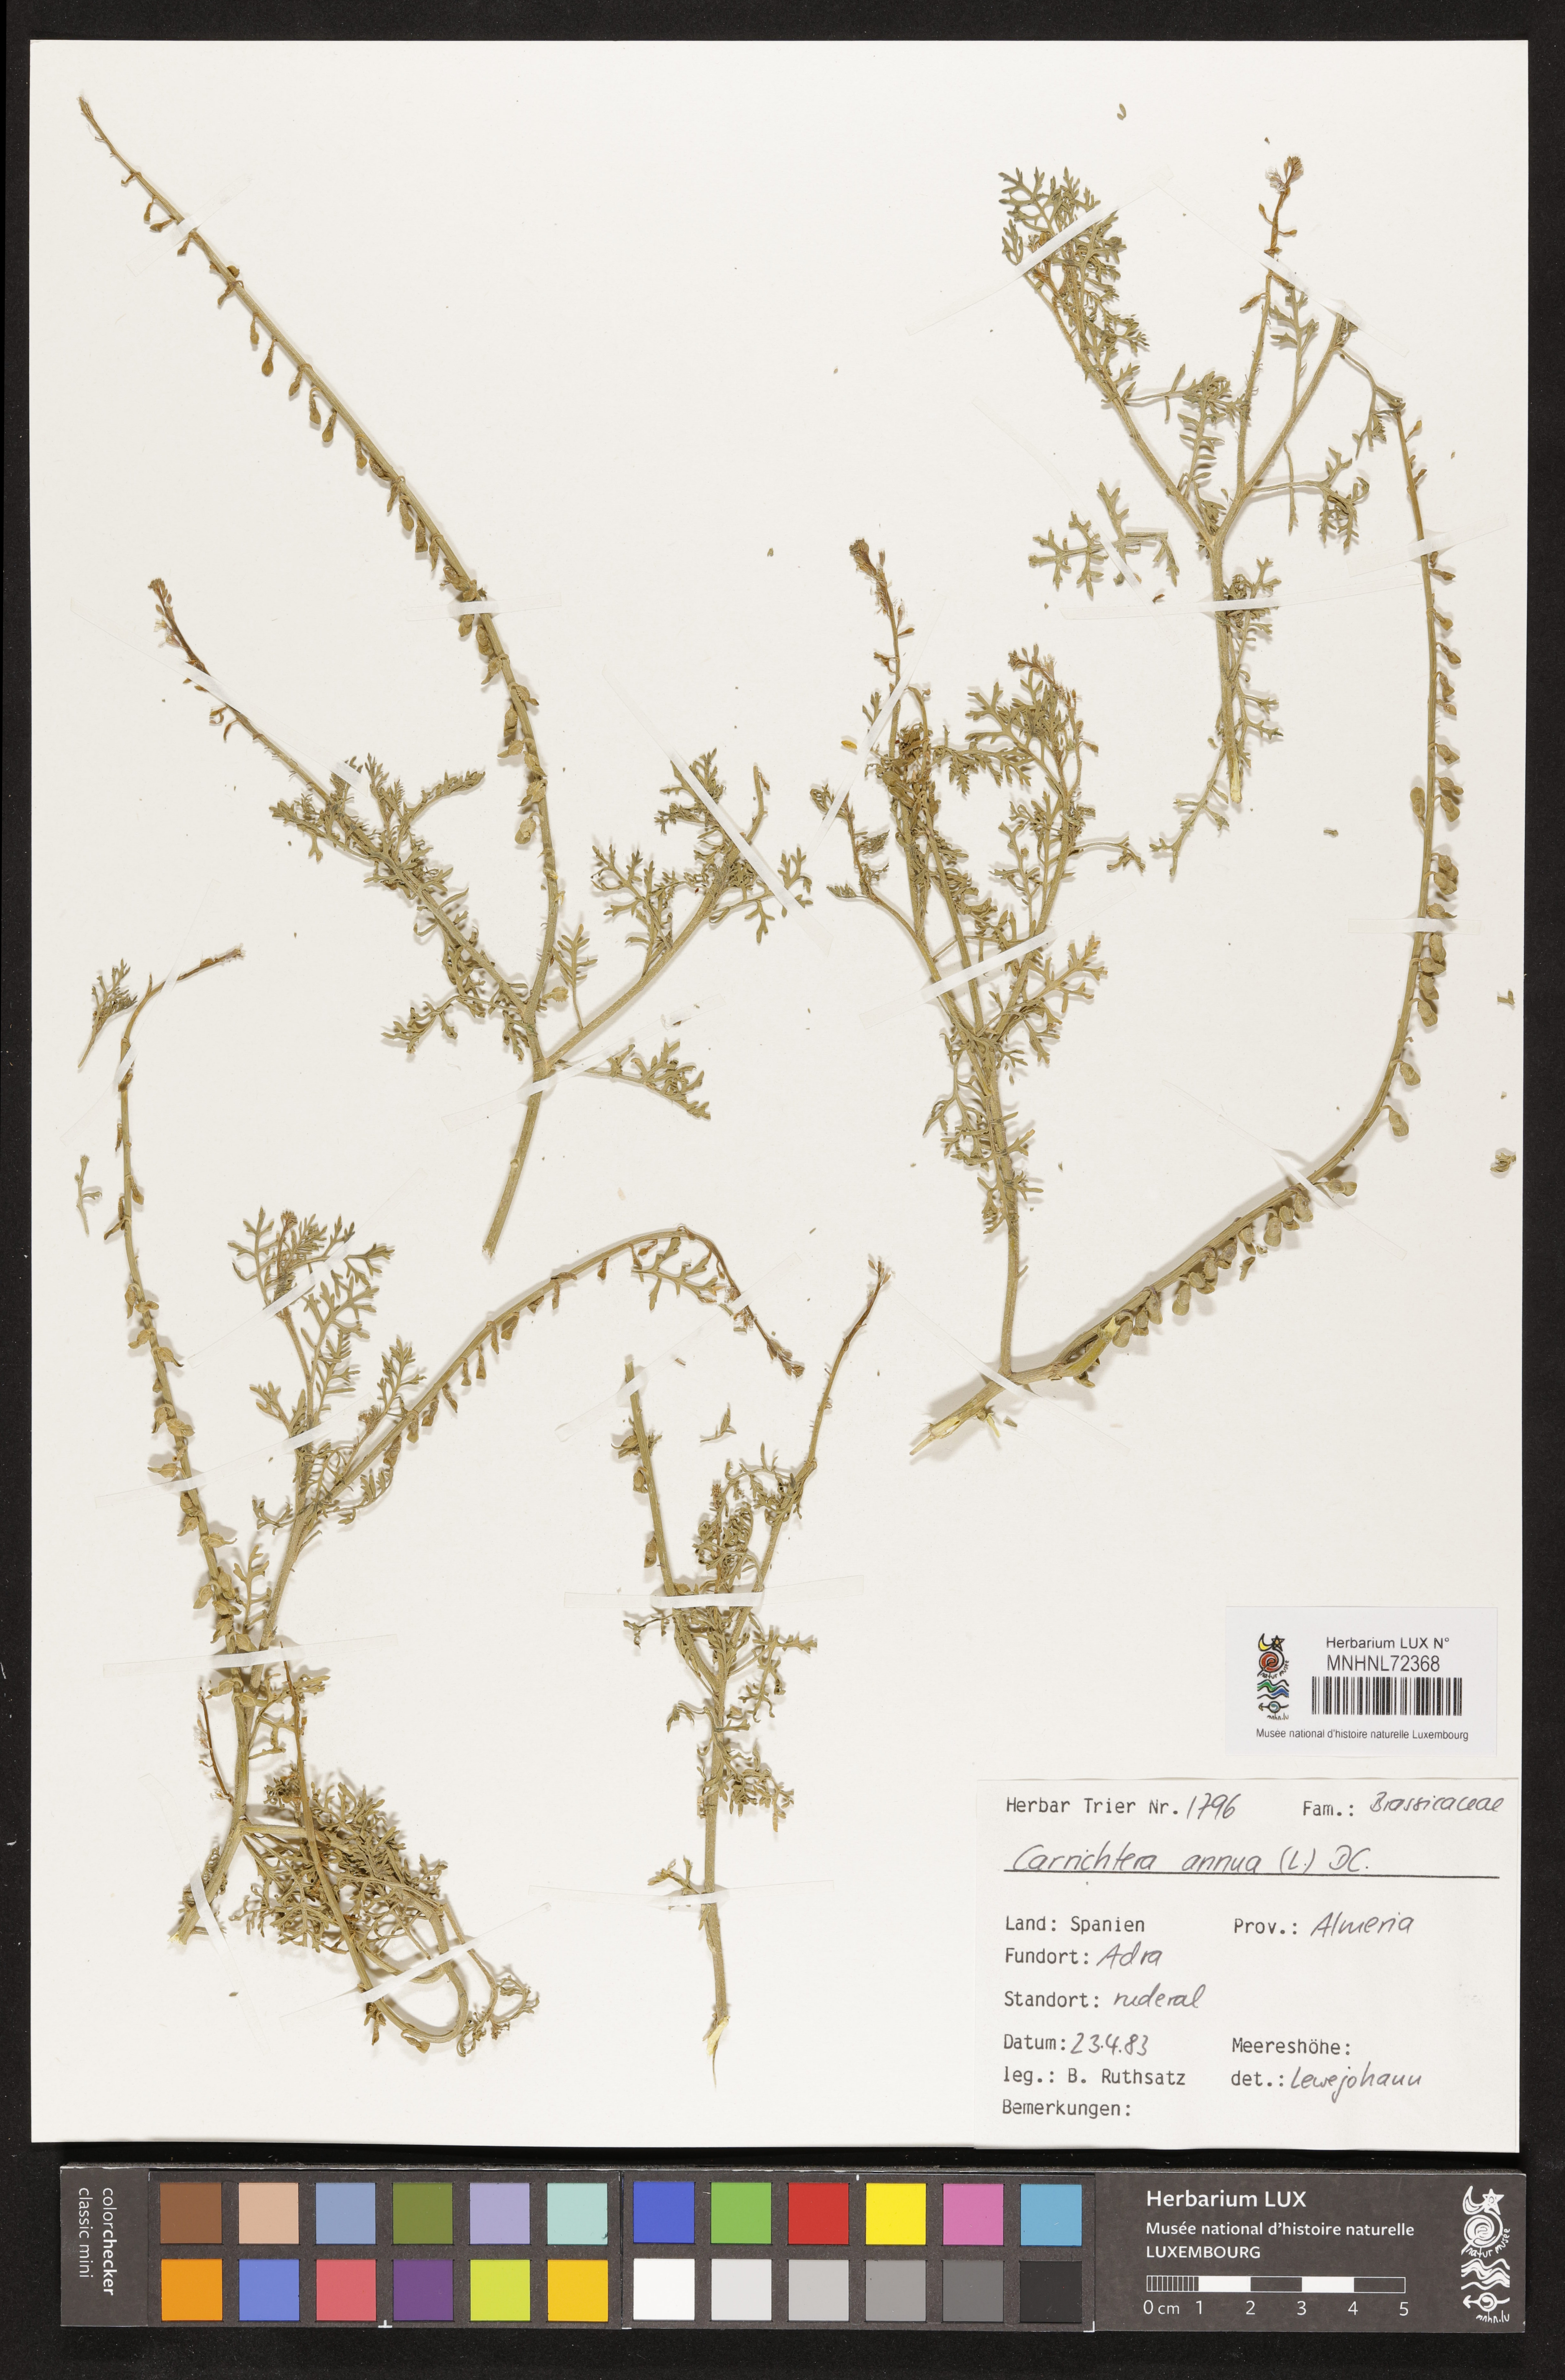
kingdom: Plantae
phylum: Tracheophyta
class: Magnoliopsida
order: Brassicales
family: Brassicaceae
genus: Carrichtera
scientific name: Carrichtera annua
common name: Cress rocket
